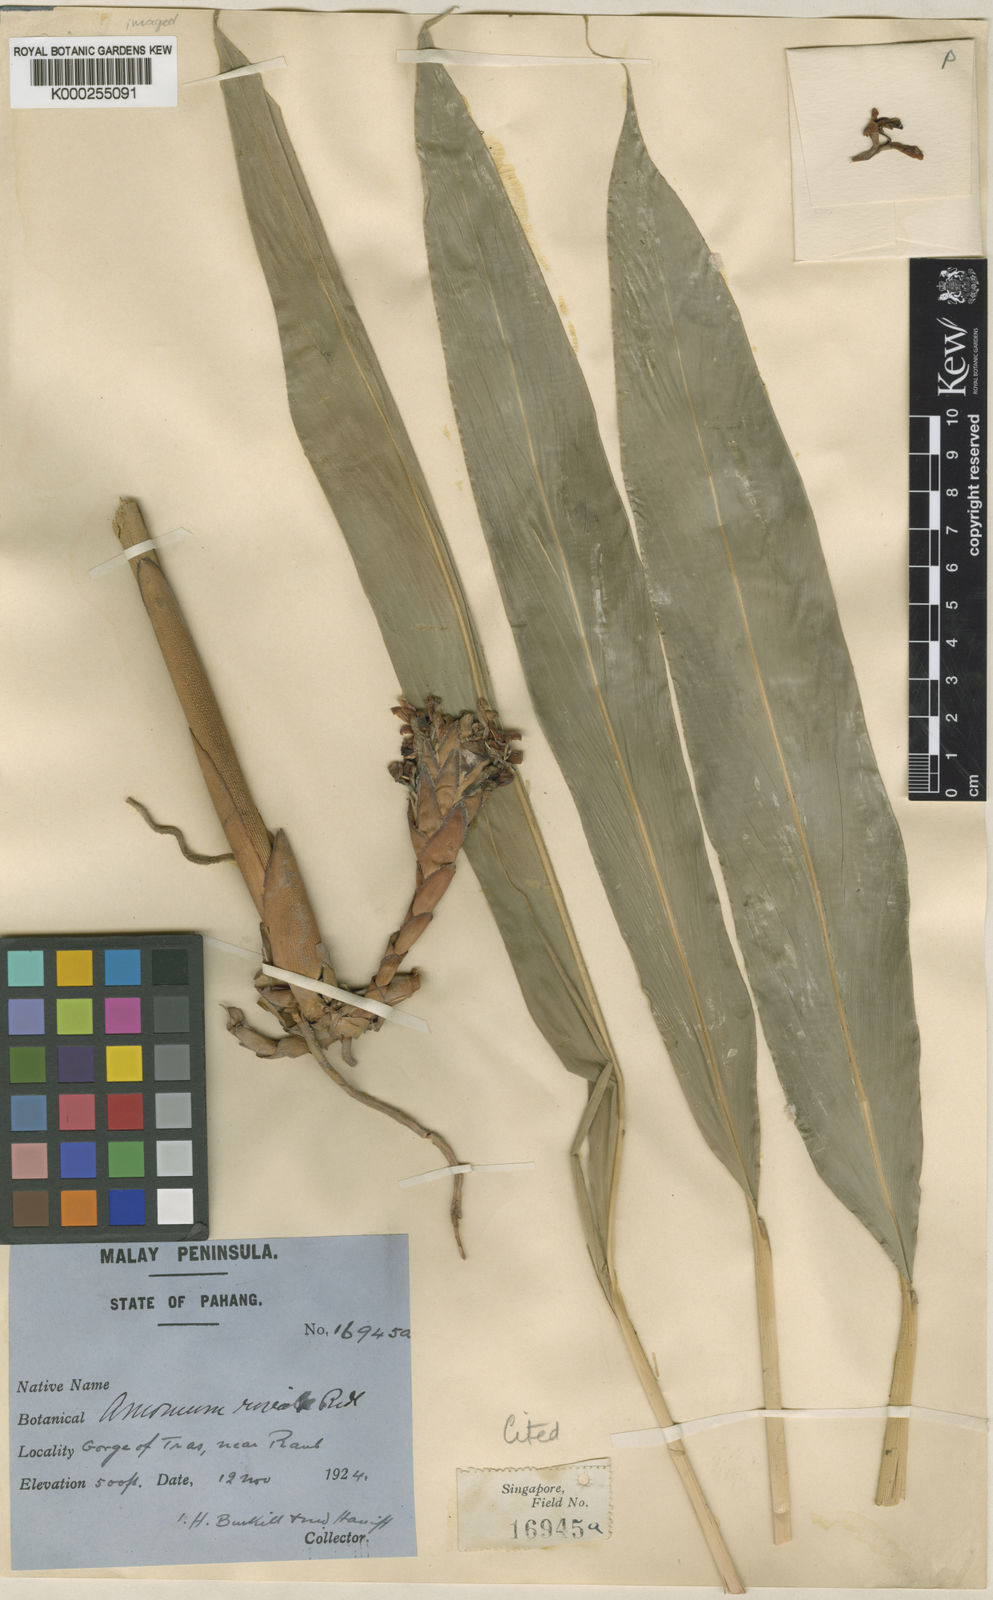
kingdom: Plantae
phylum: Tracheophyta
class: Liliopsida
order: Zingiberales
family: Zingiberaceae
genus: Wurfbainia
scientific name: Wurfbainia mollis
